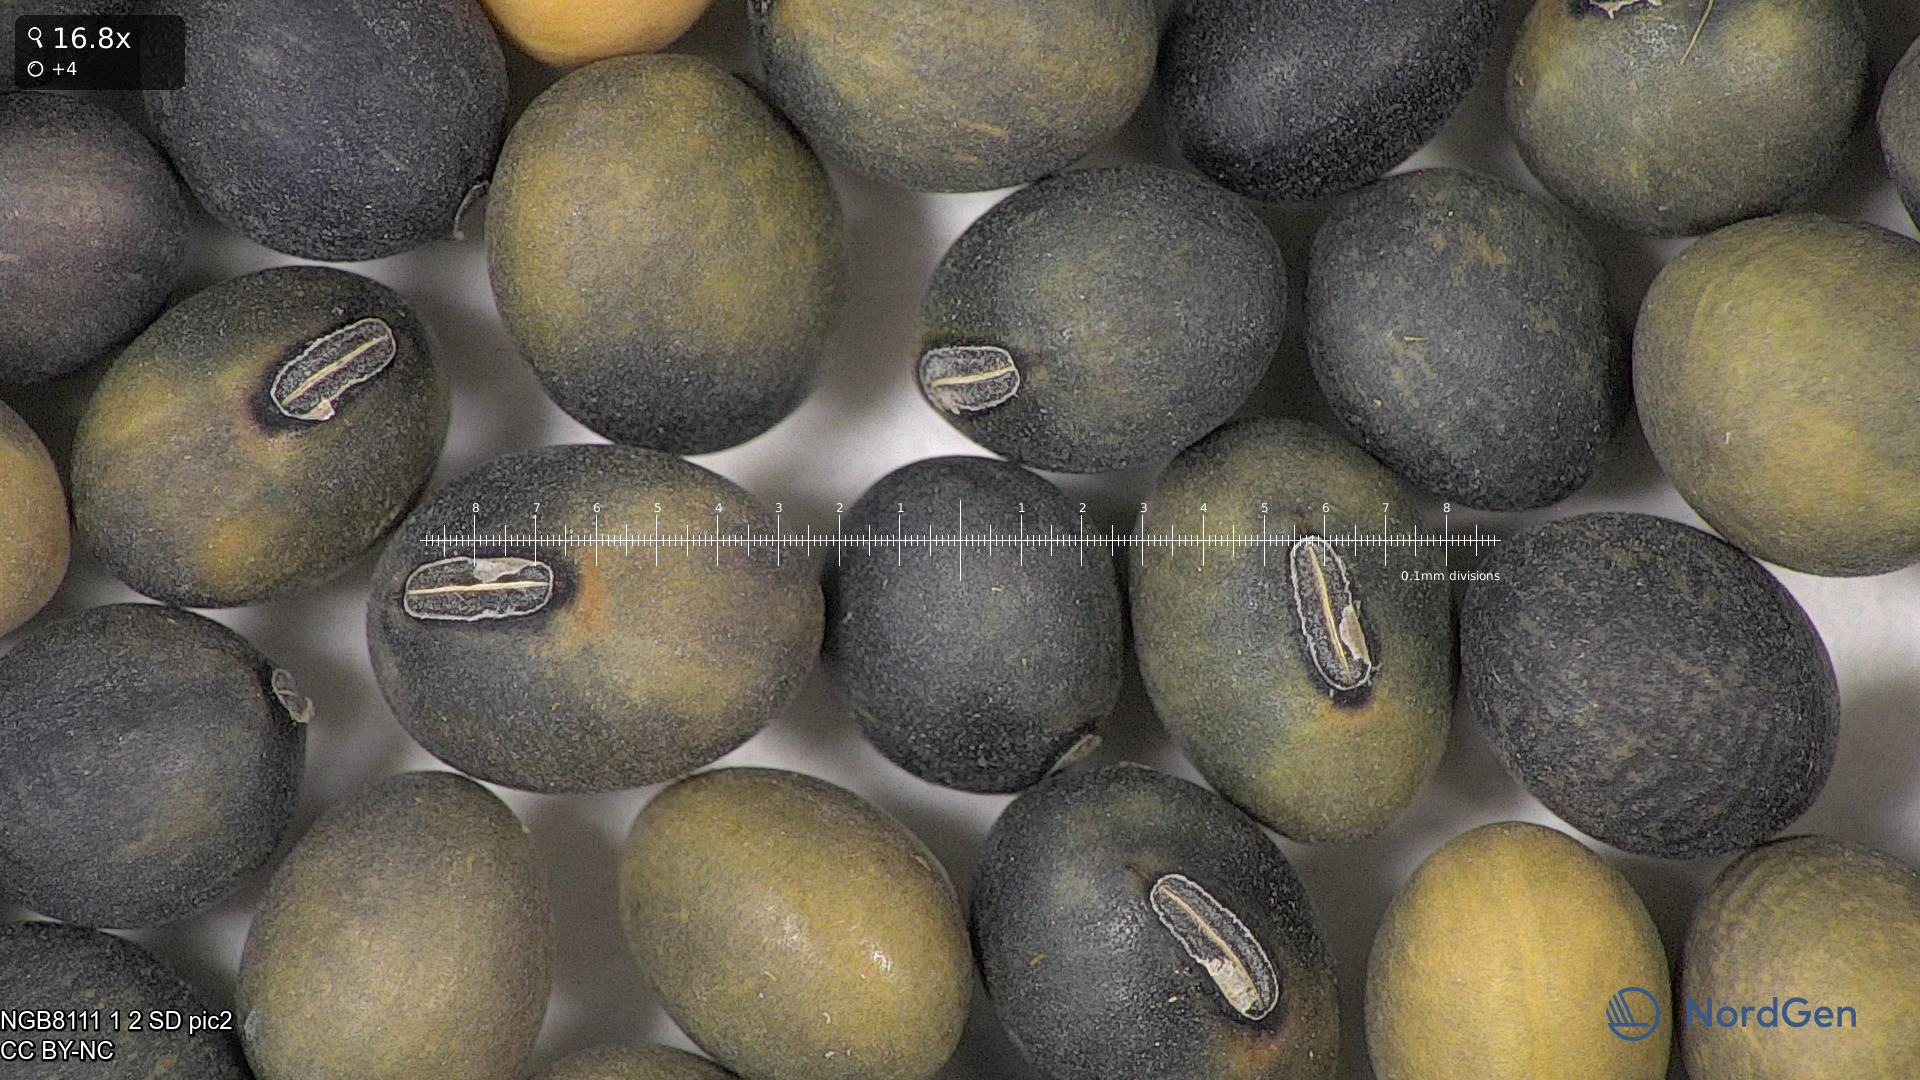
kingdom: Plantae
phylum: Tracheophyta
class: Magnoliopsida
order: Fabales
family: Fabaceae
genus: Glycine
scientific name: Glycine max
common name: Soya-bean
